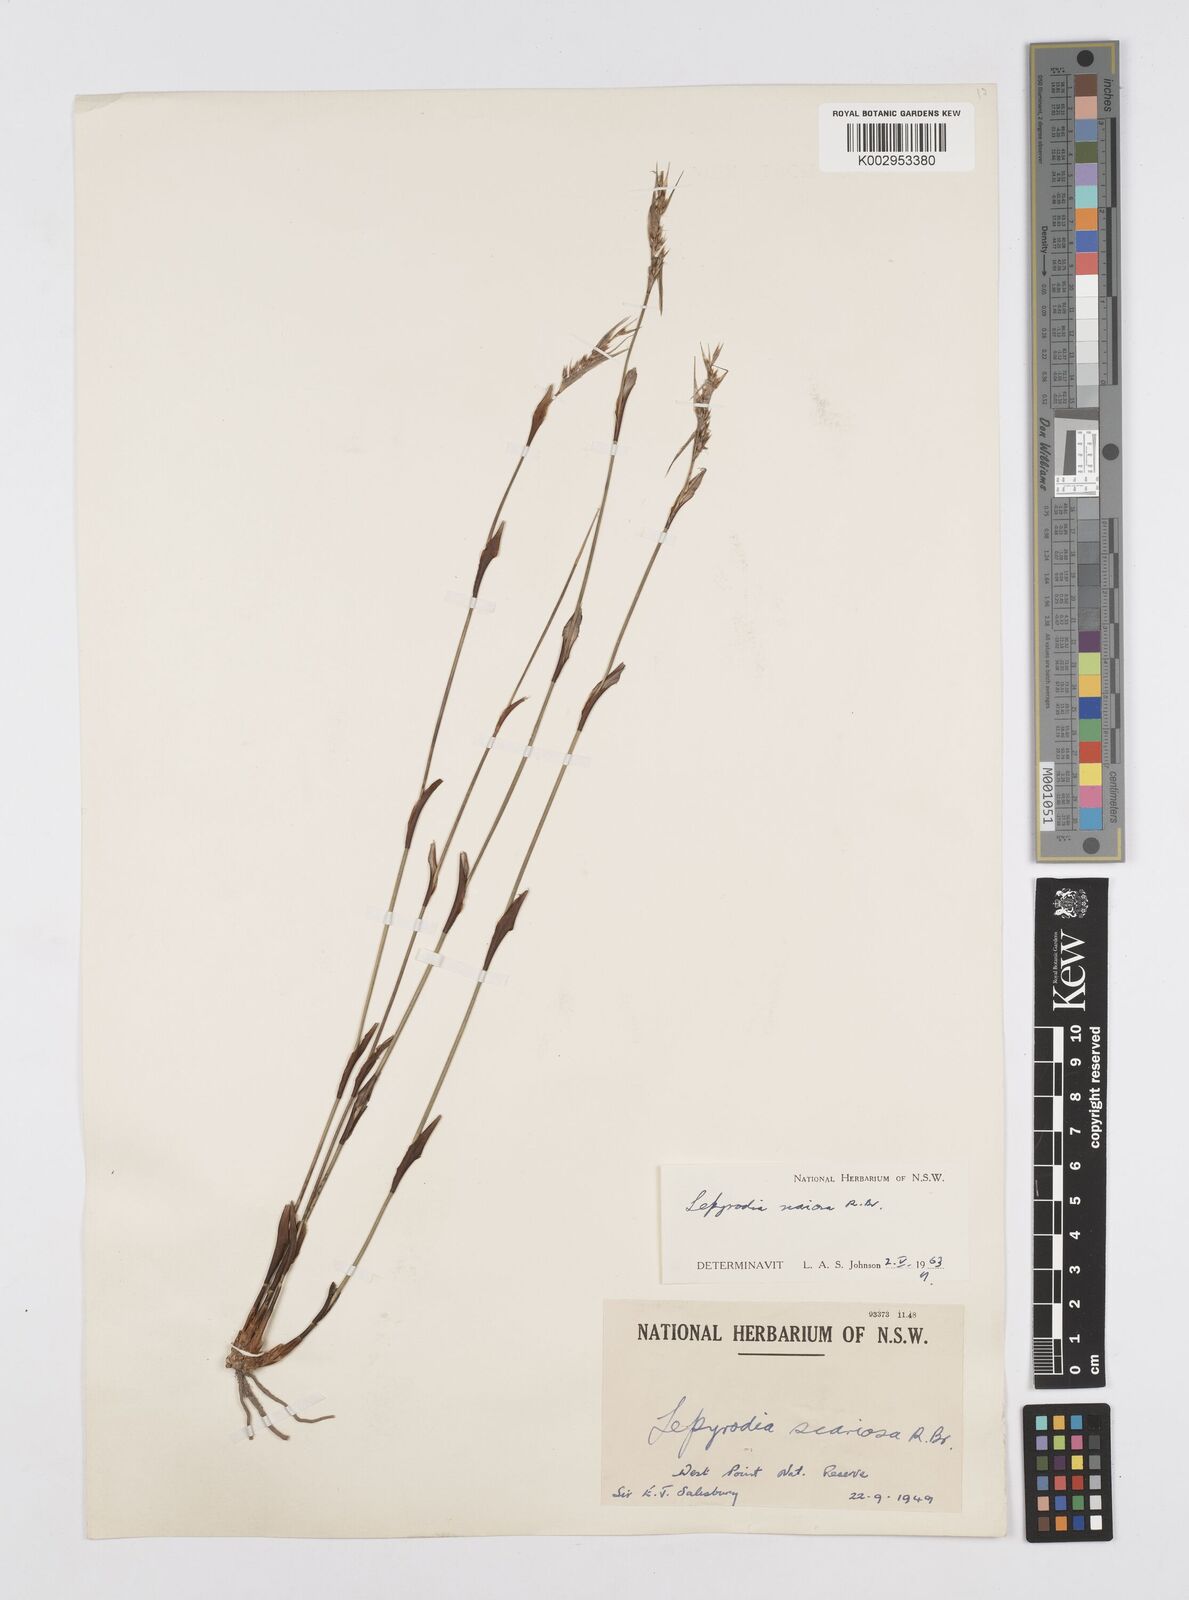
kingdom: Plantae
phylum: Tracheophyta
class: Liliopsida
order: Poales
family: Restionaceae
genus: Lepyrodia
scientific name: Lepyrodia scariosa
